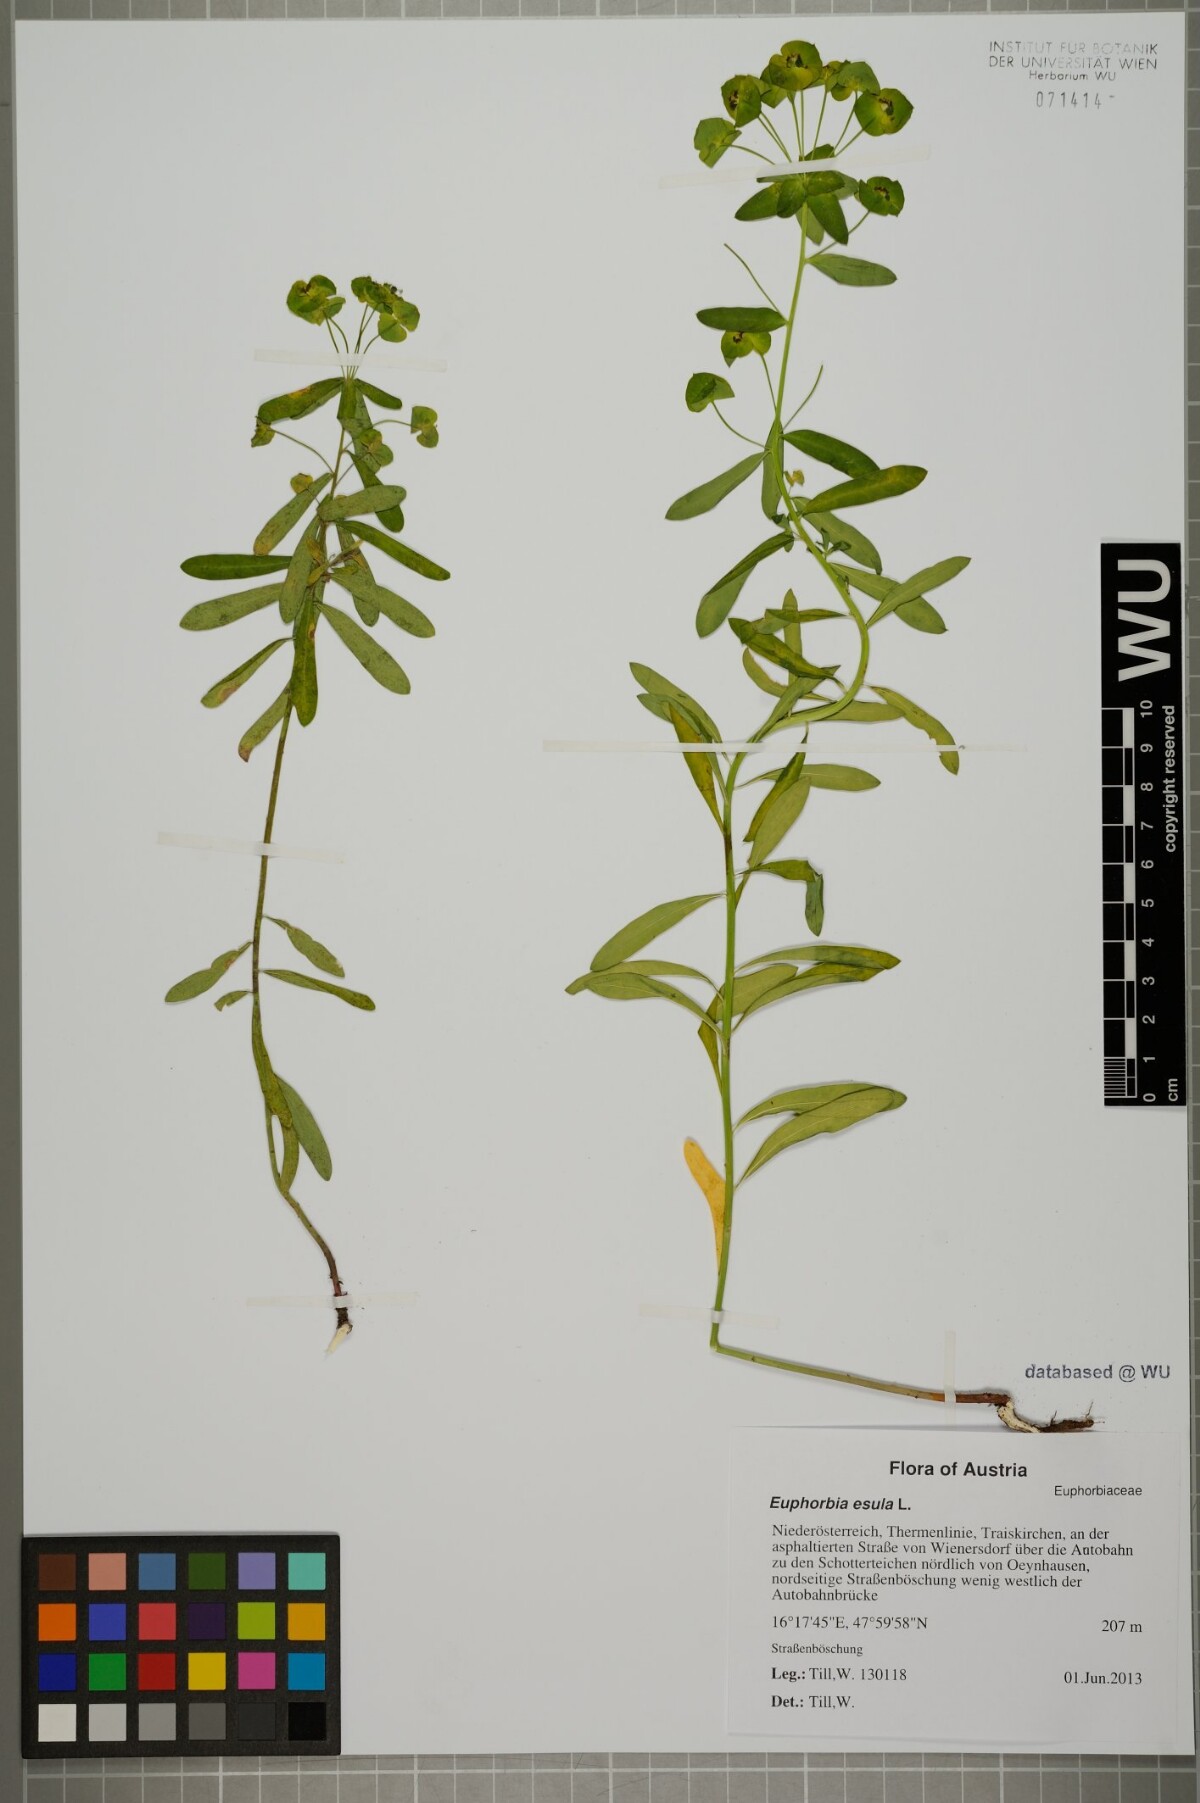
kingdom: Plantae
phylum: Tracheophyta
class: Magnoliopsida
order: Malpighiales
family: Euphorbiaceae
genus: Euphorbia
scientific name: Euphorbia esula
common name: Leafy spurge
